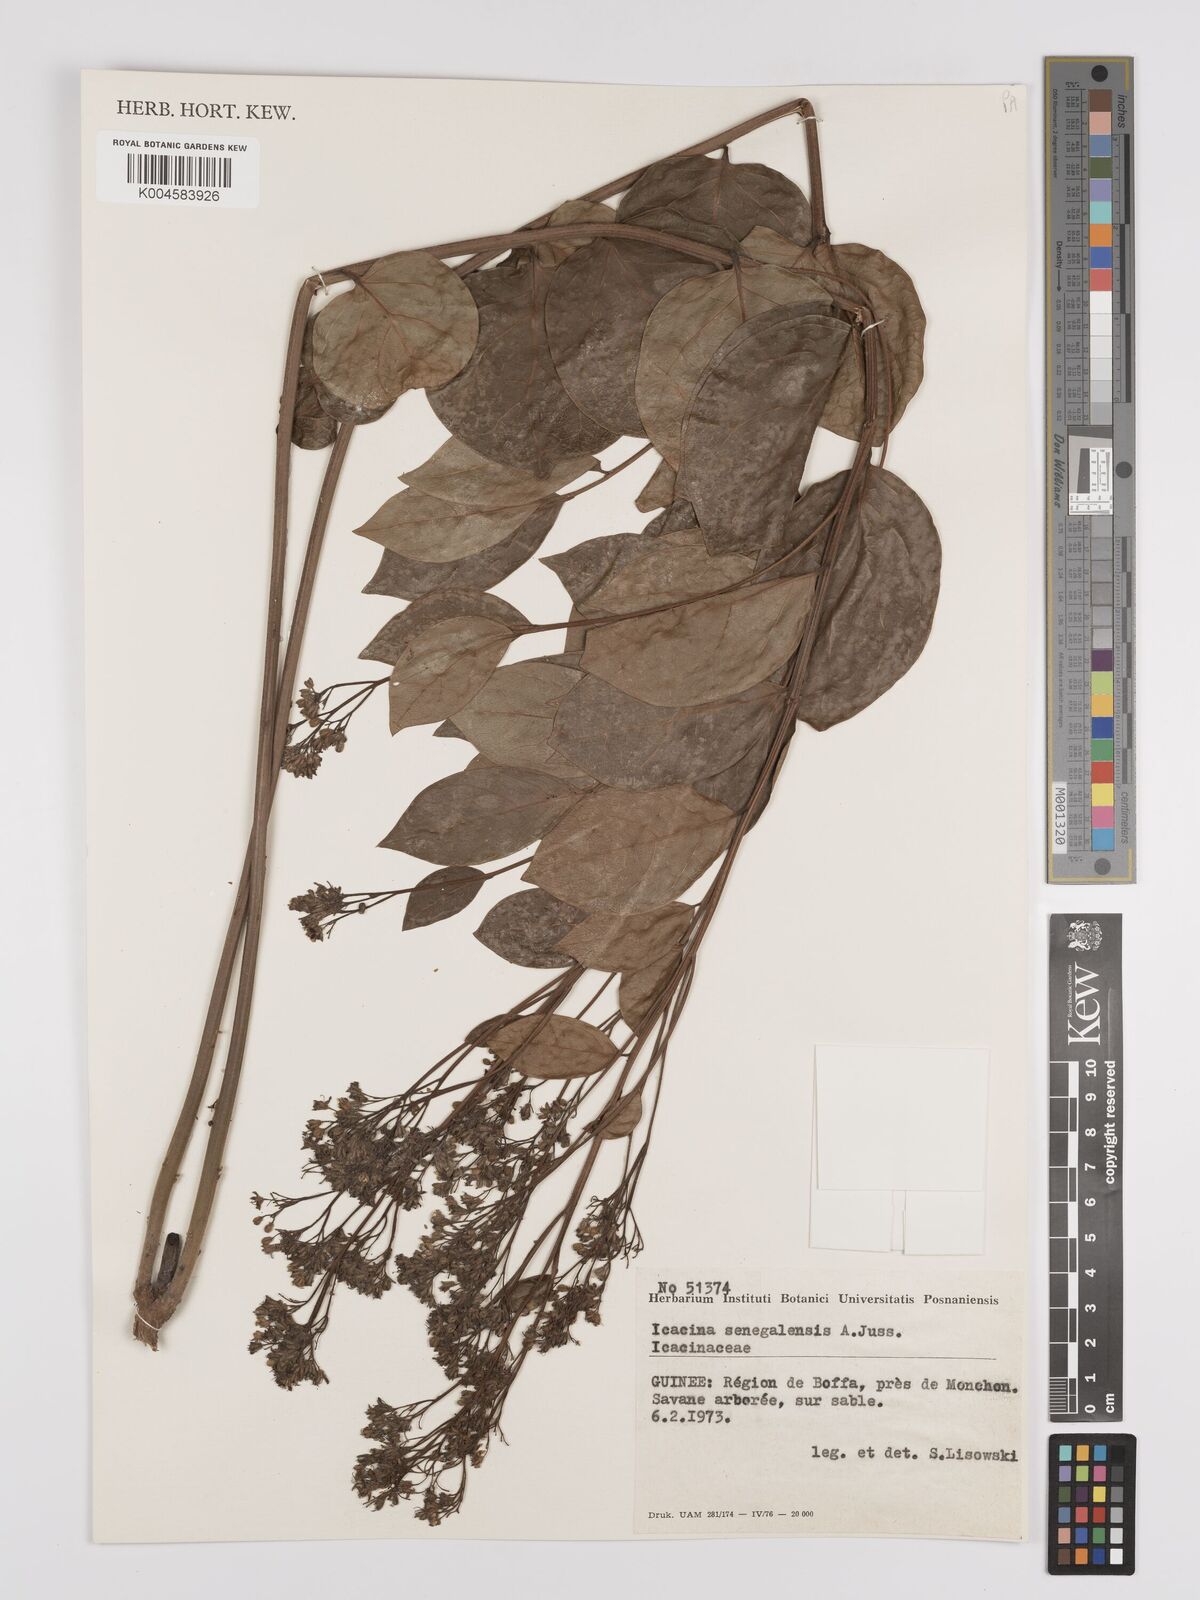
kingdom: Plantae
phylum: Tracheophyta
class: Magnoliopsida
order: Icacinales
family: Icacinaceae
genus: Icacina
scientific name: Icacina oliviformis
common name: False yam
